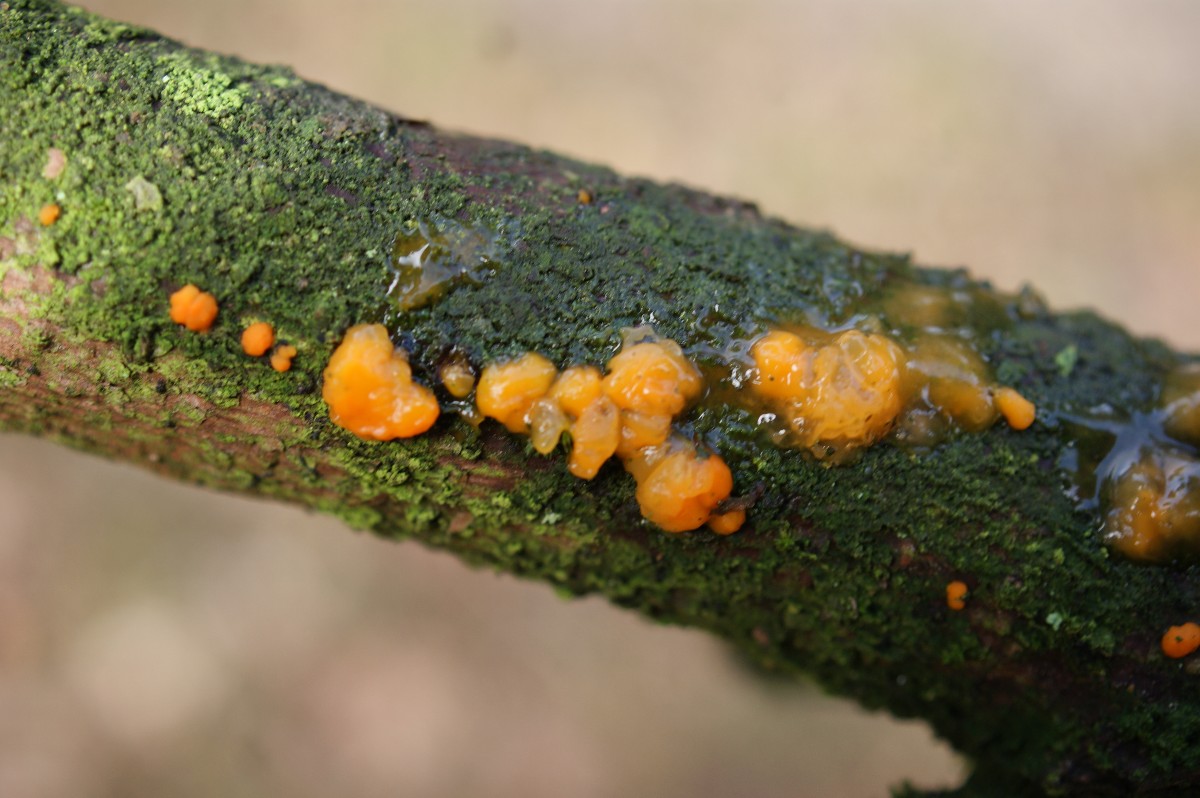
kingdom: Fungi
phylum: Basidiomycota
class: Dacrymycetes
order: Dacrymycetales
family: Dacrymycetaceae
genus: Dacrymyces
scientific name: Dacrymyces stillatus
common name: almindelig tåresvamp
